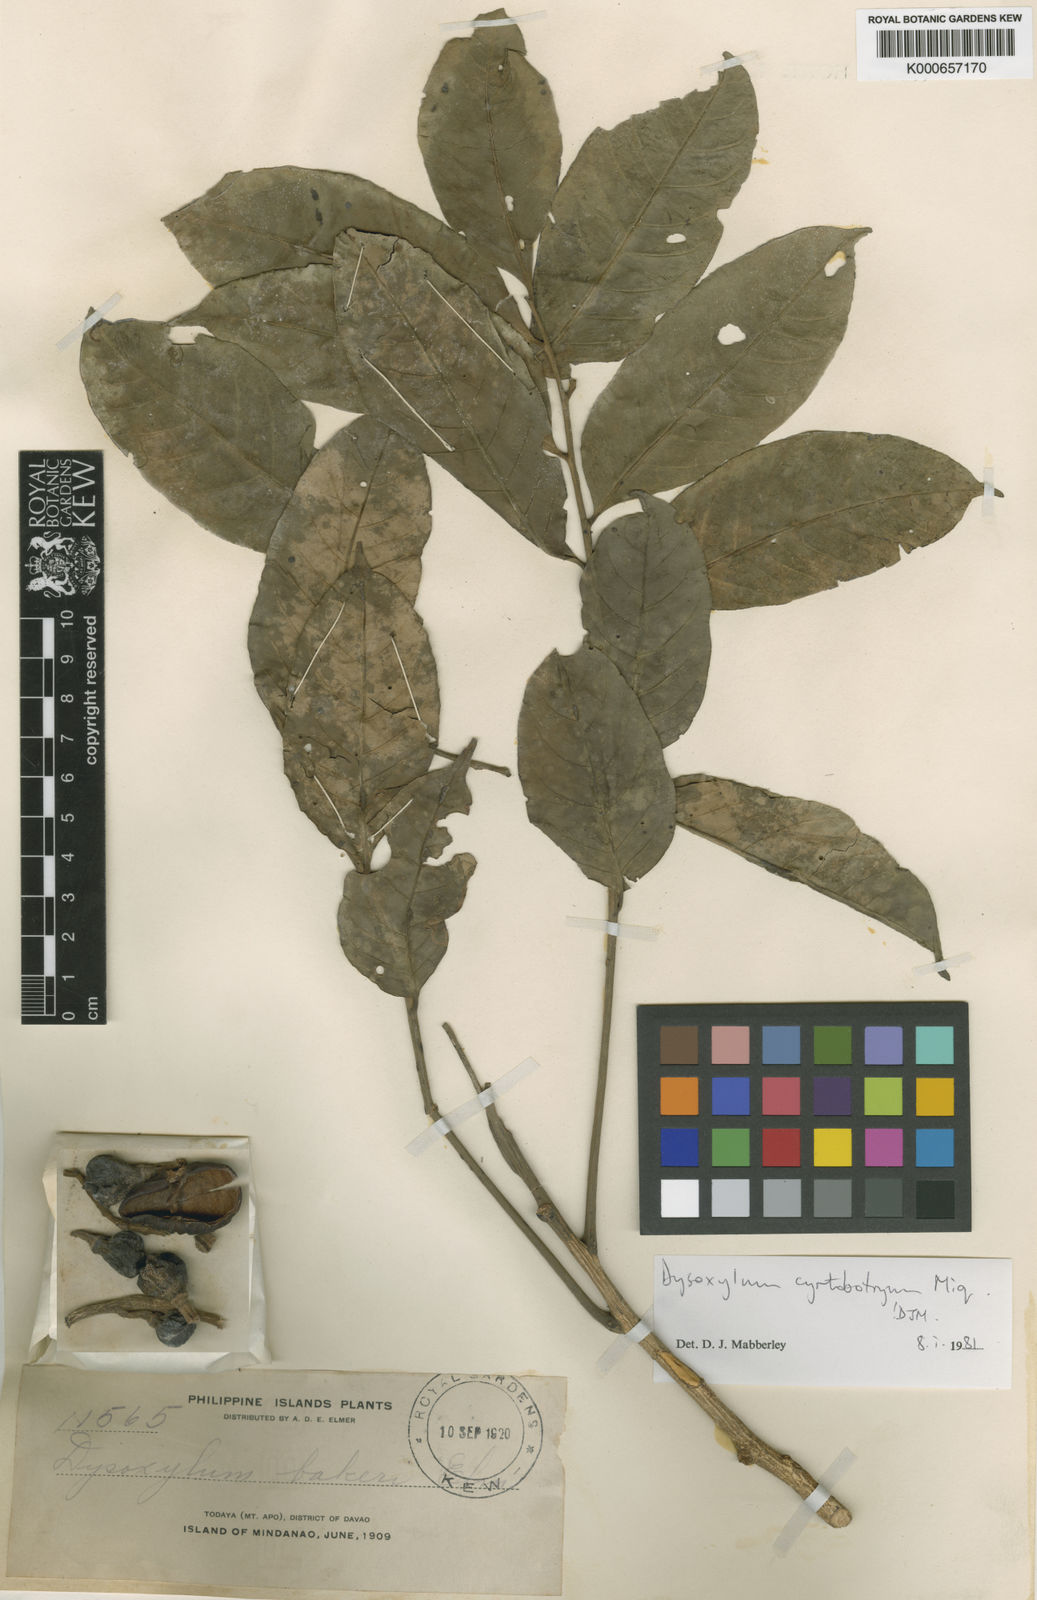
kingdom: Plantae
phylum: Tracheophyta
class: Magnoliopsida
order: Sapindales
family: Meliaceae
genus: Dysoxylum
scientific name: Dysoxylum cyrtobotryum
